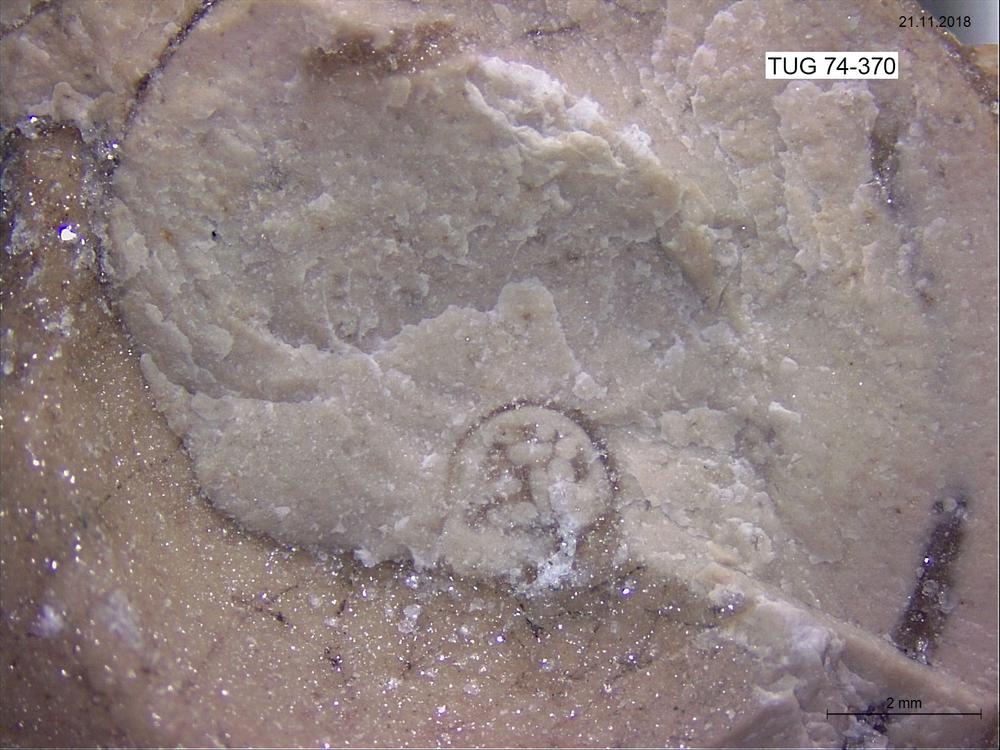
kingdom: Animalia
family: Coprulidae
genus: Coprulus
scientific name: Coprulus
